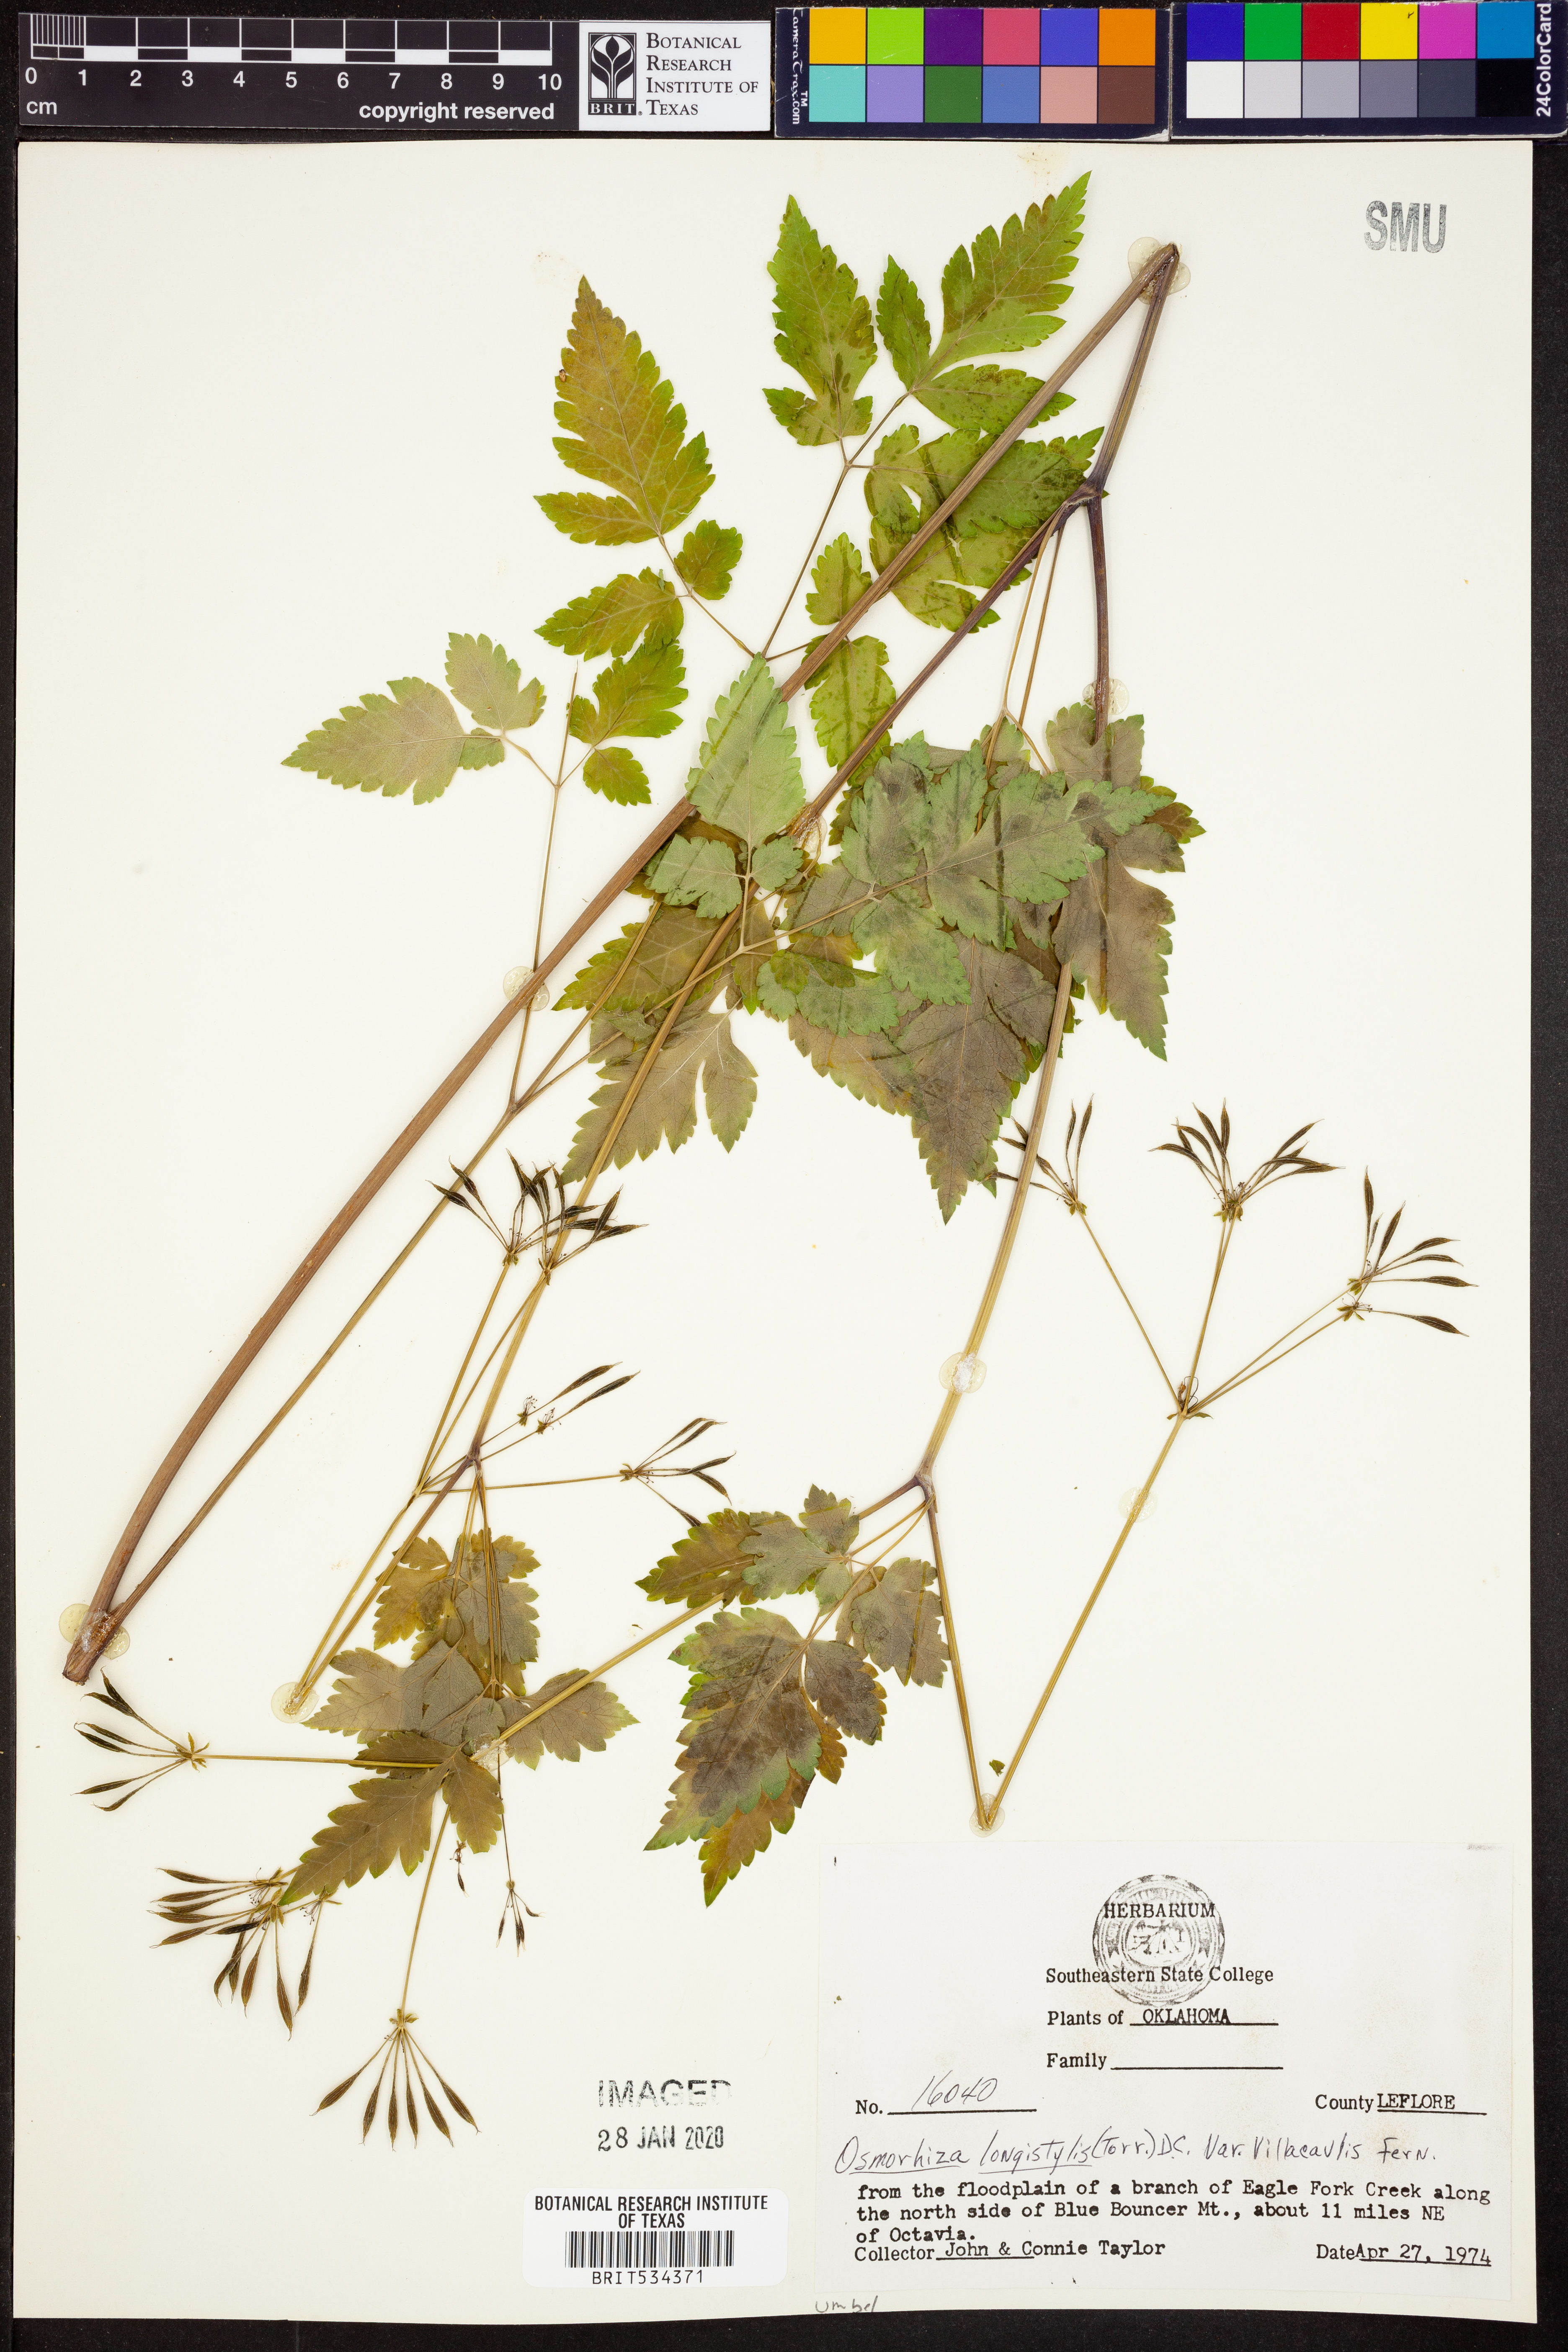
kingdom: Plantae
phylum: Tracheophyta
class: Magnoliopsida
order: Apiales
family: Apiaceae
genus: Osmorhiza
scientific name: Osmorhiza longistylis
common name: Smooth sweet cicely
